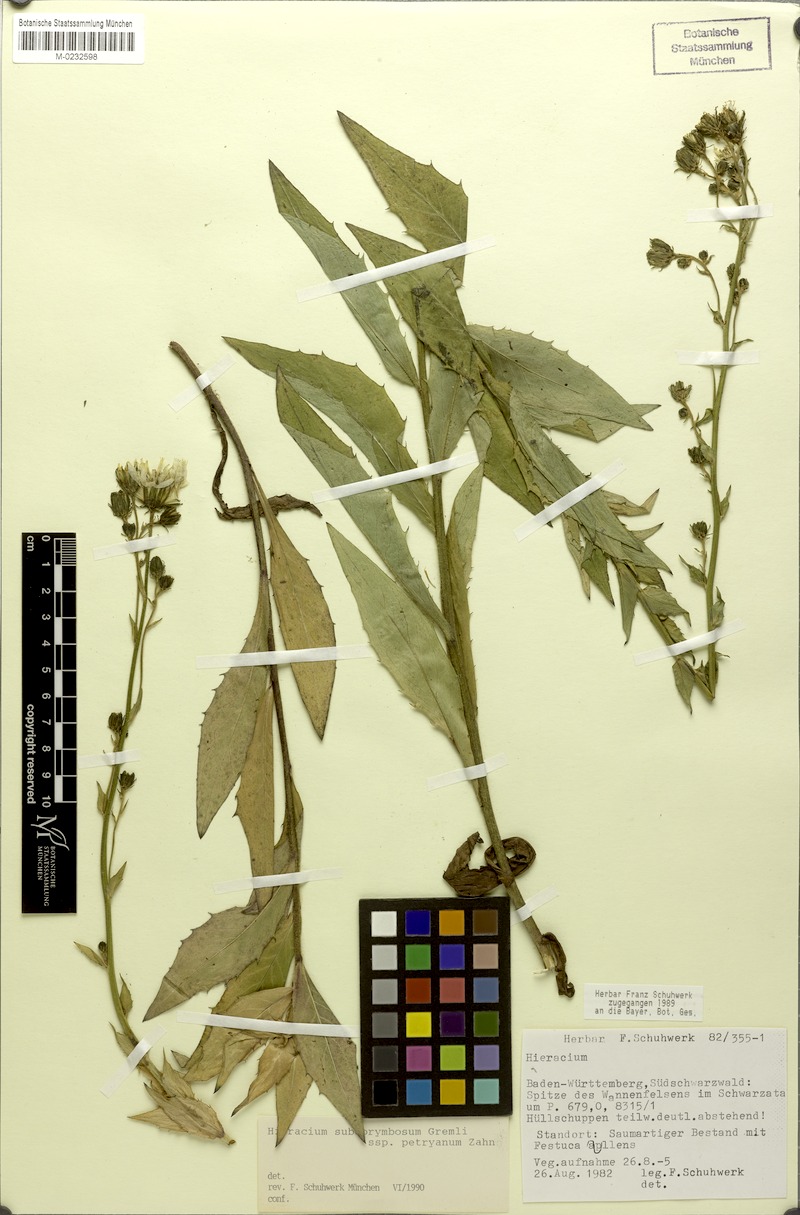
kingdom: Plantae
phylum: Tracheophyta
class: Magnoliopsida
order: Asterales
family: Asteraceae
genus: Hieracium
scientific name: Hieracium
